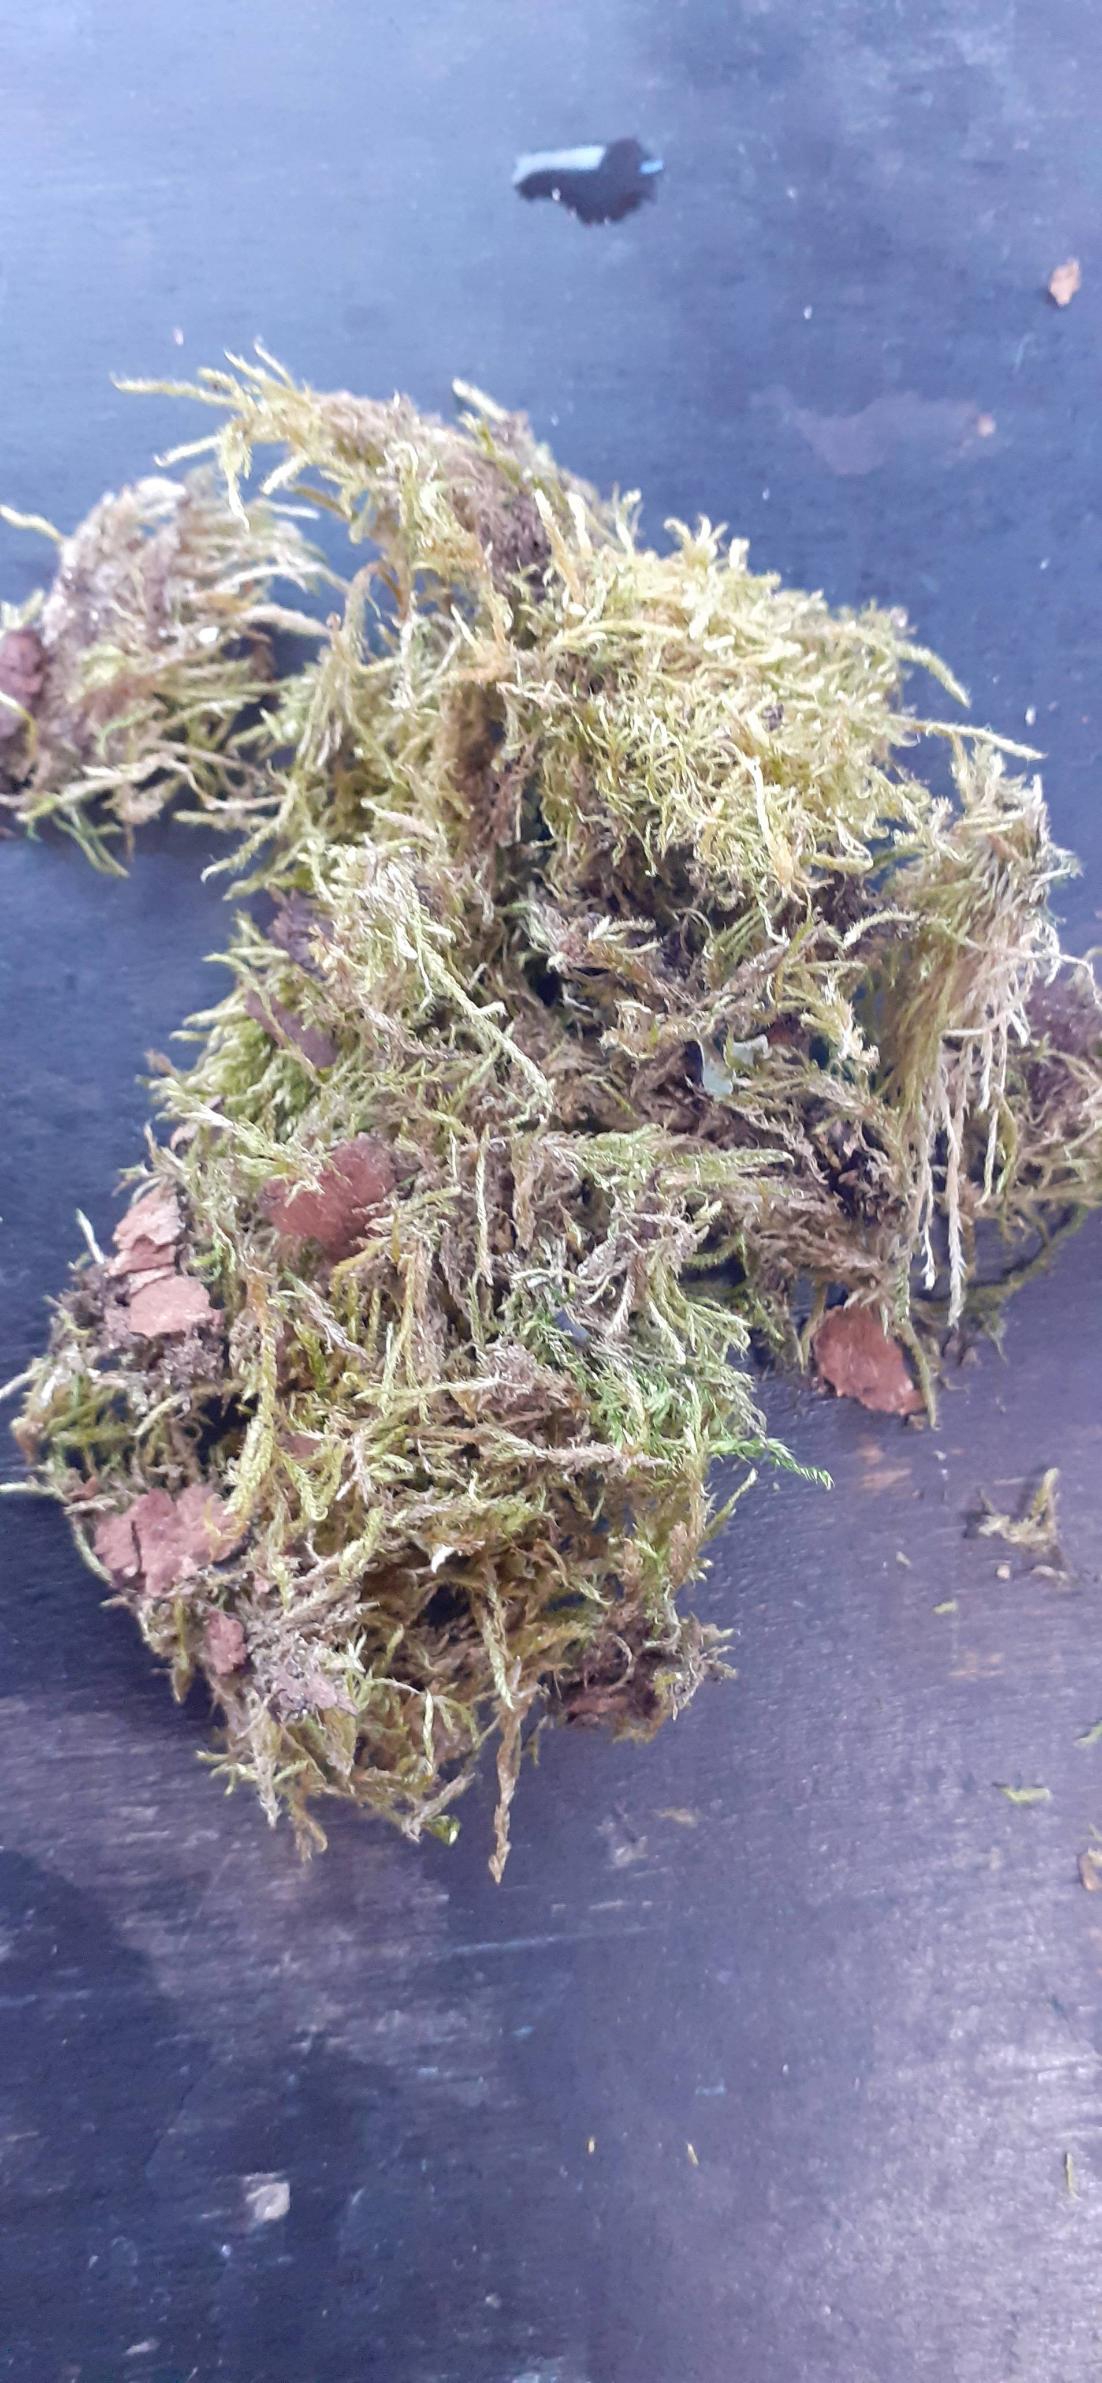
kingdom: Plantae
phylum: Bryophyta
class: Bryopsida
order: Hypnales
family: Hypnaceae
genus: Hypnum
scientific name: Hypnum
